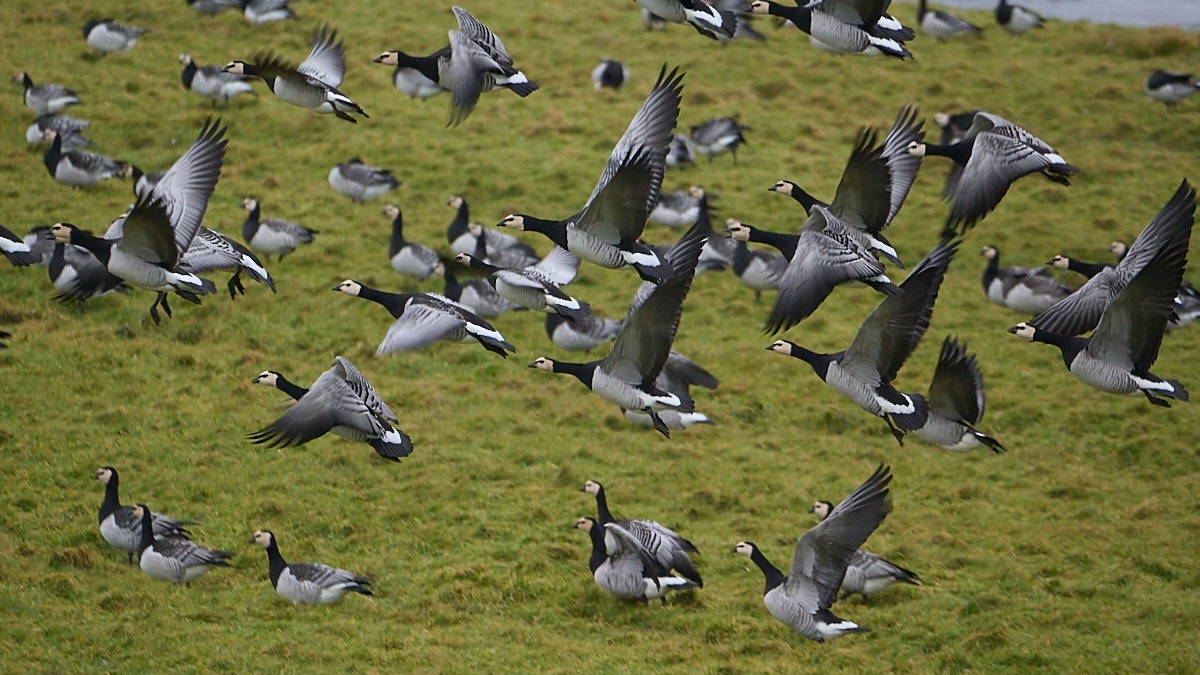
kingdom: Animalia
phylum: Chordata
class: Aves
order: Anseriformes
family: Anatidae
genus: Branta
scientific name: Branta leucopsis
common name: Bramgås
